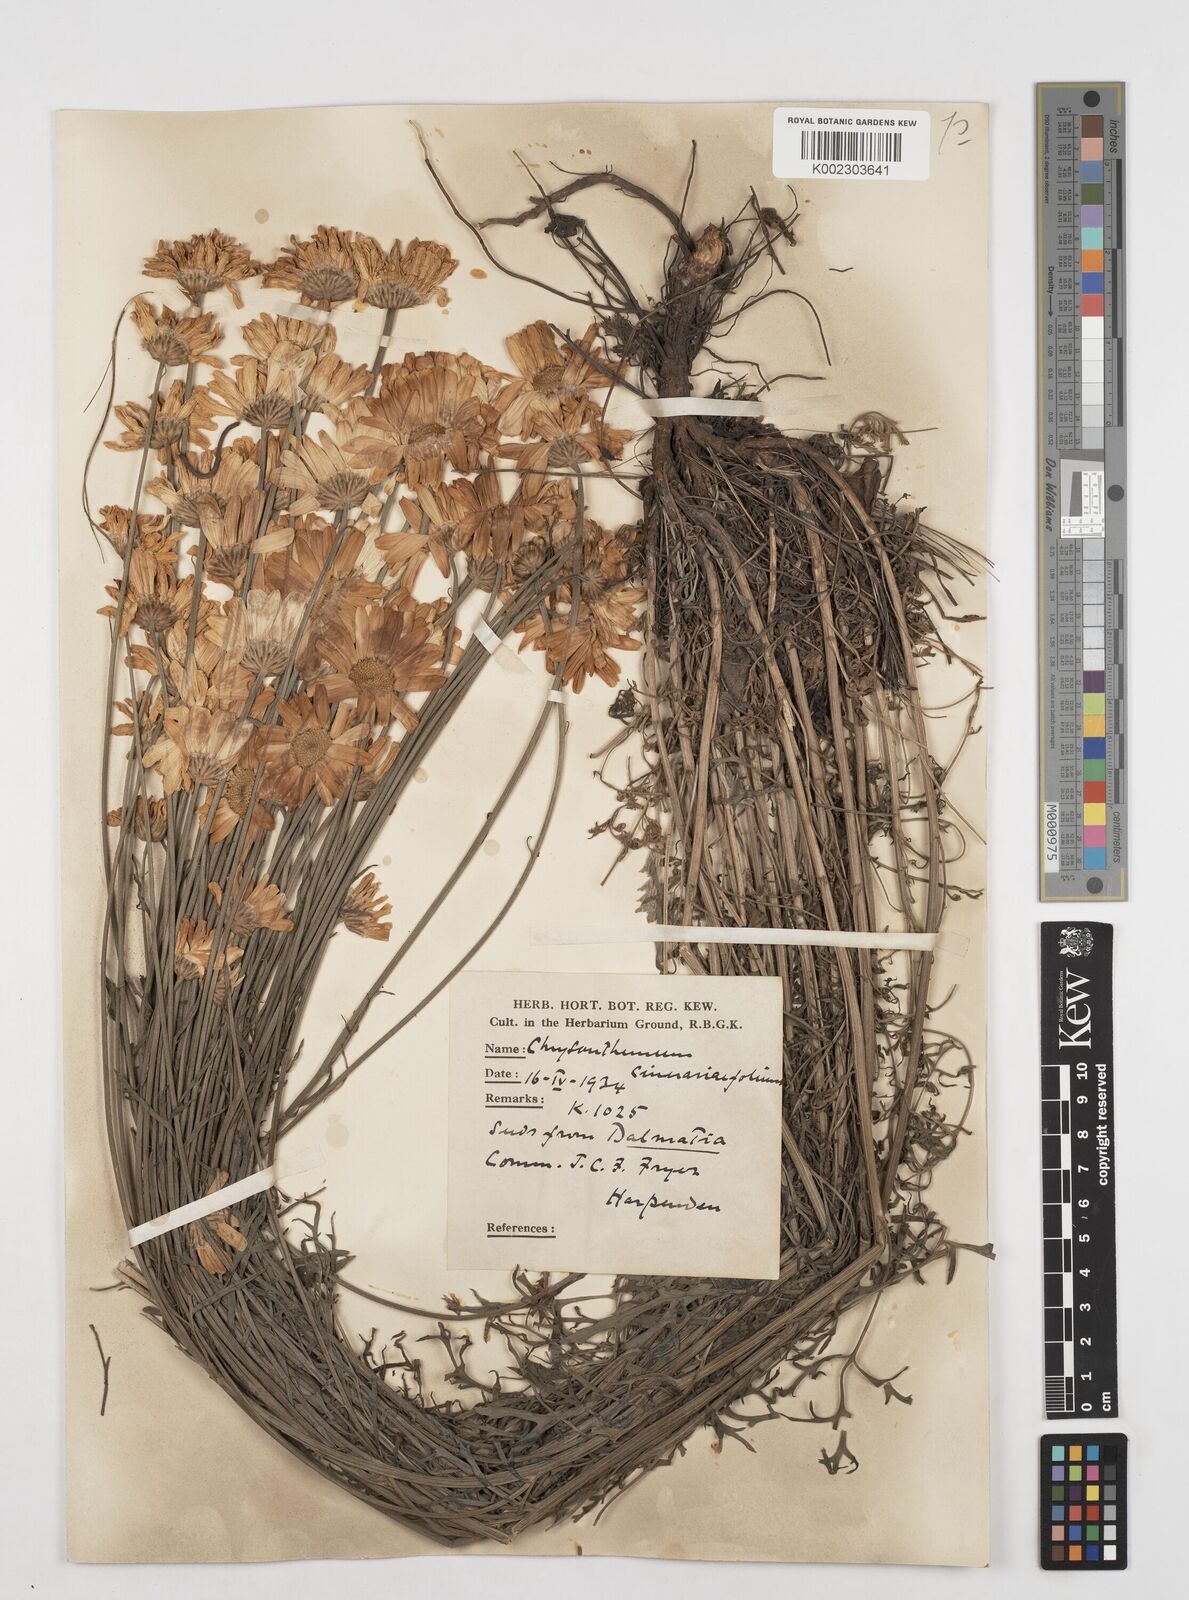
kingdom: Plantae
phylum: Tracheophyta
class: Magnoliopsida
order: Asterales
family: Asteraceae
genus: Tanacetum
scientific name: Tanacetum cinerariifolium
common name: Dalmatian pyrethrum
